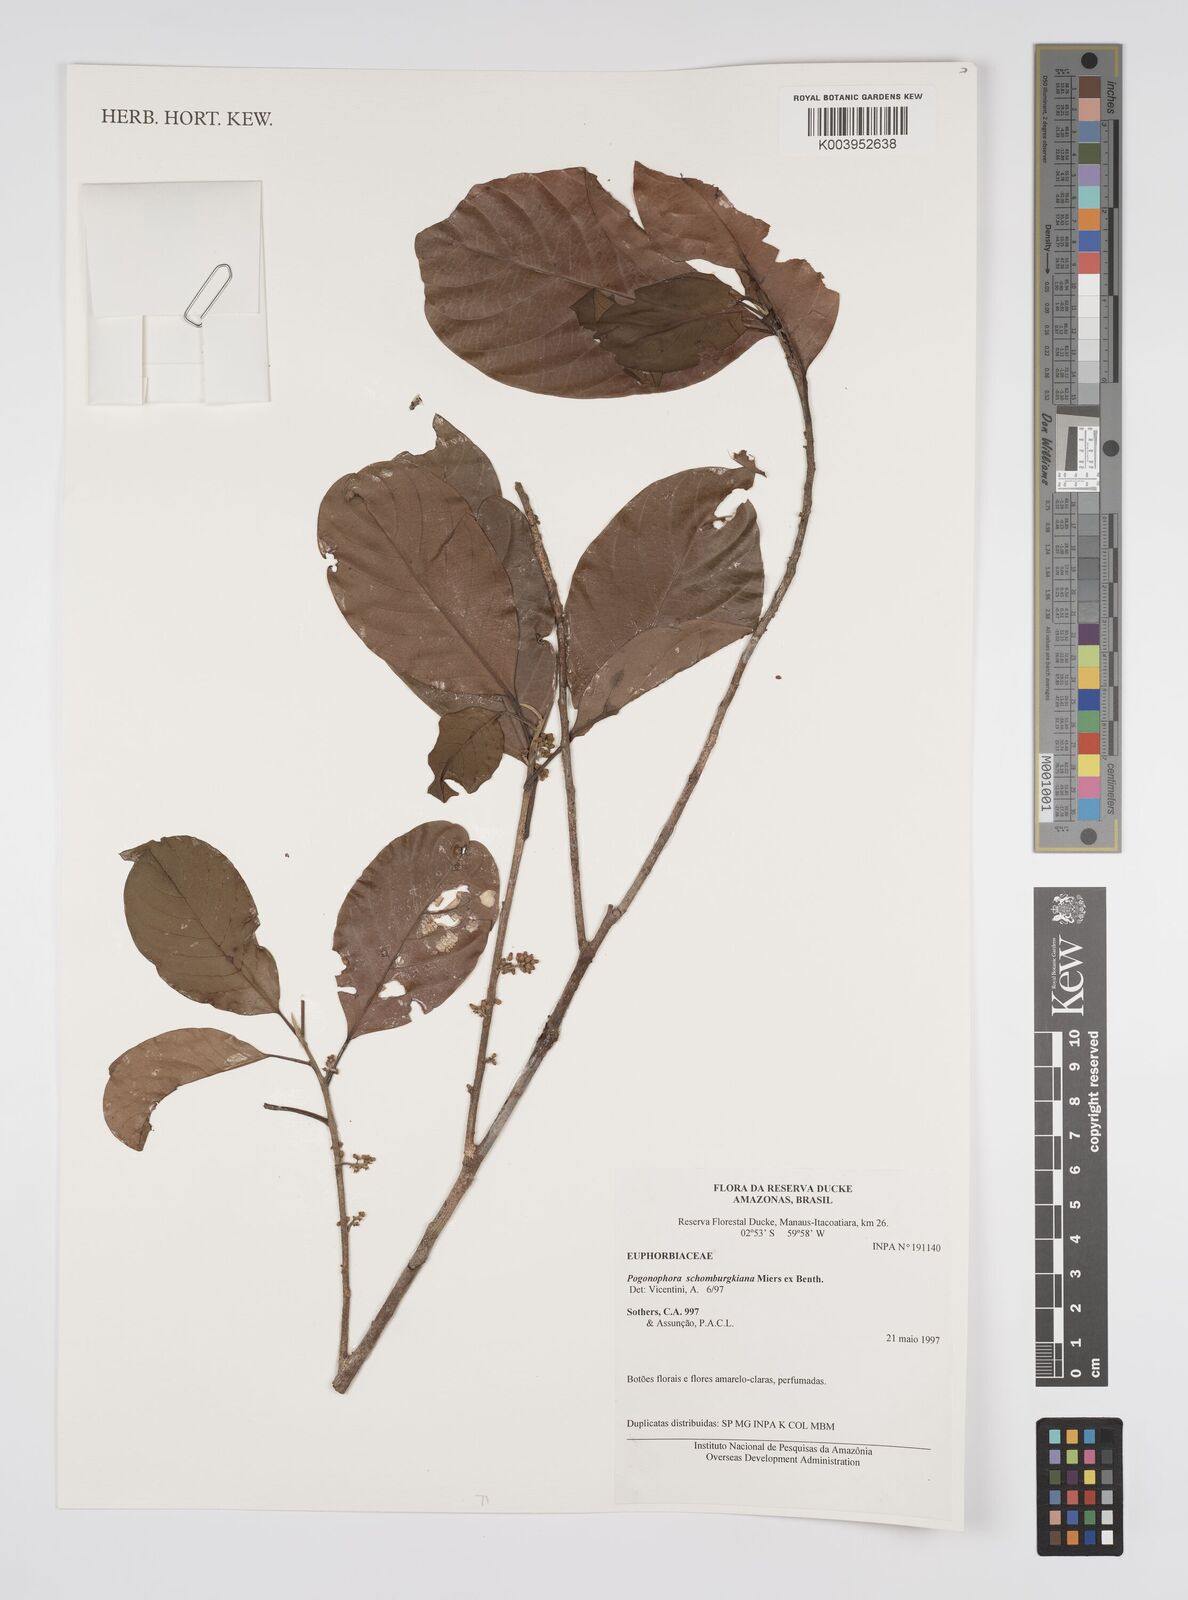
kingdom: Plantae
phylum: Tracheophyta
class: Magnoliopsida
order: Malpighiales
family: Peraceae
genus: Pogonophora
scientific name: Pogonophora schomburgkiana
